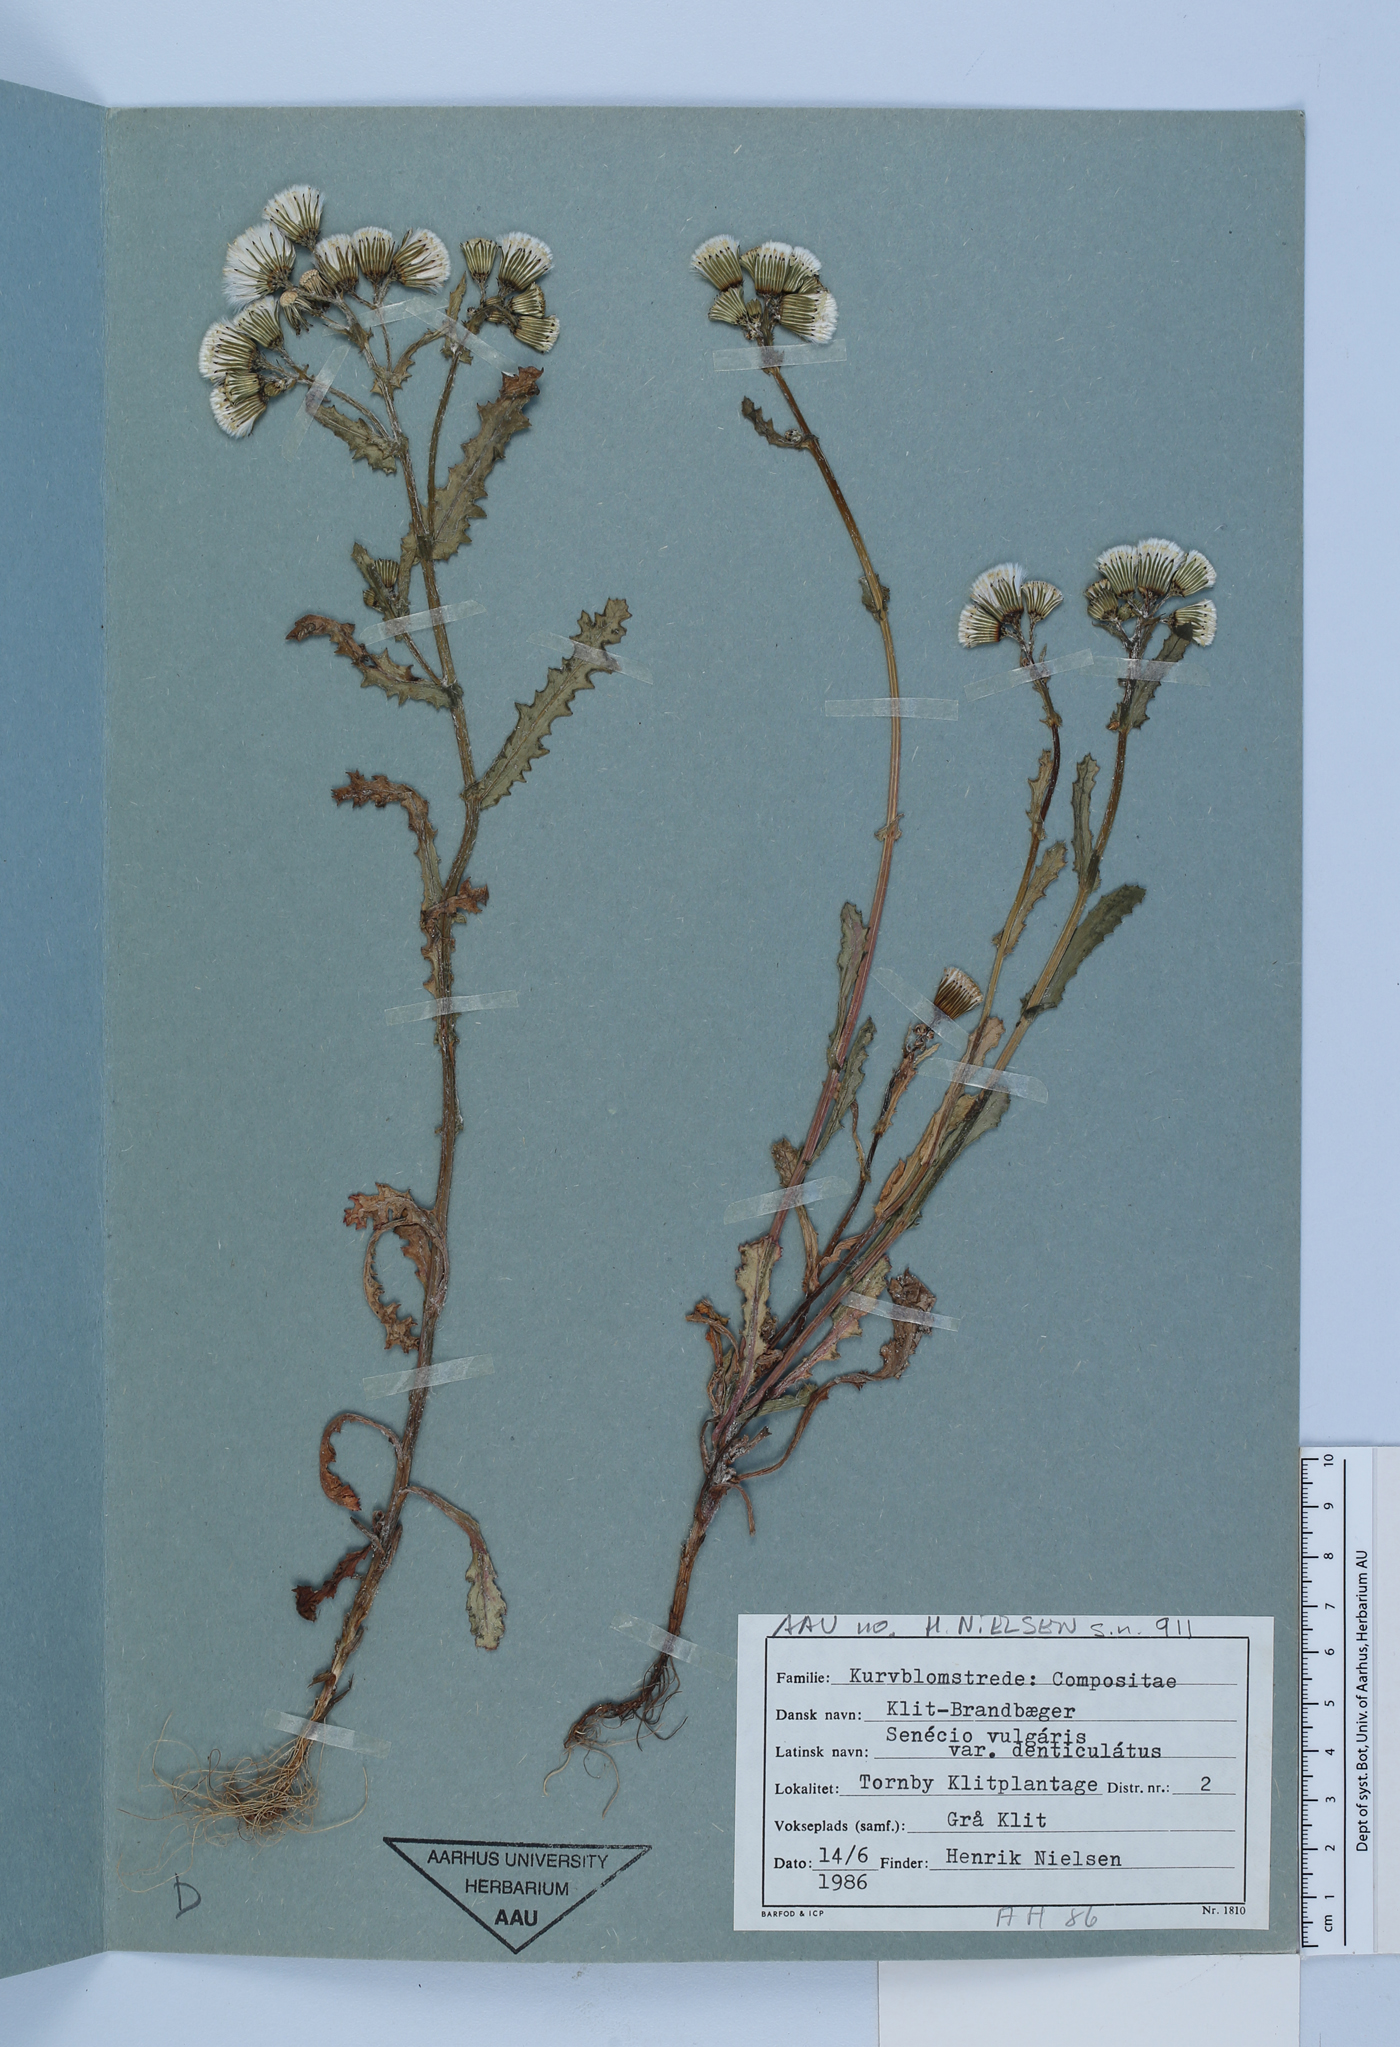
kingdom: Plantae
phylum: Tracheophyta
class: Magnoliopsida
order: Asterales
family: Asteraceae
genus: Senecio
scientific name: Senecio vulgaris
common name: Old-man-in-the-spring
